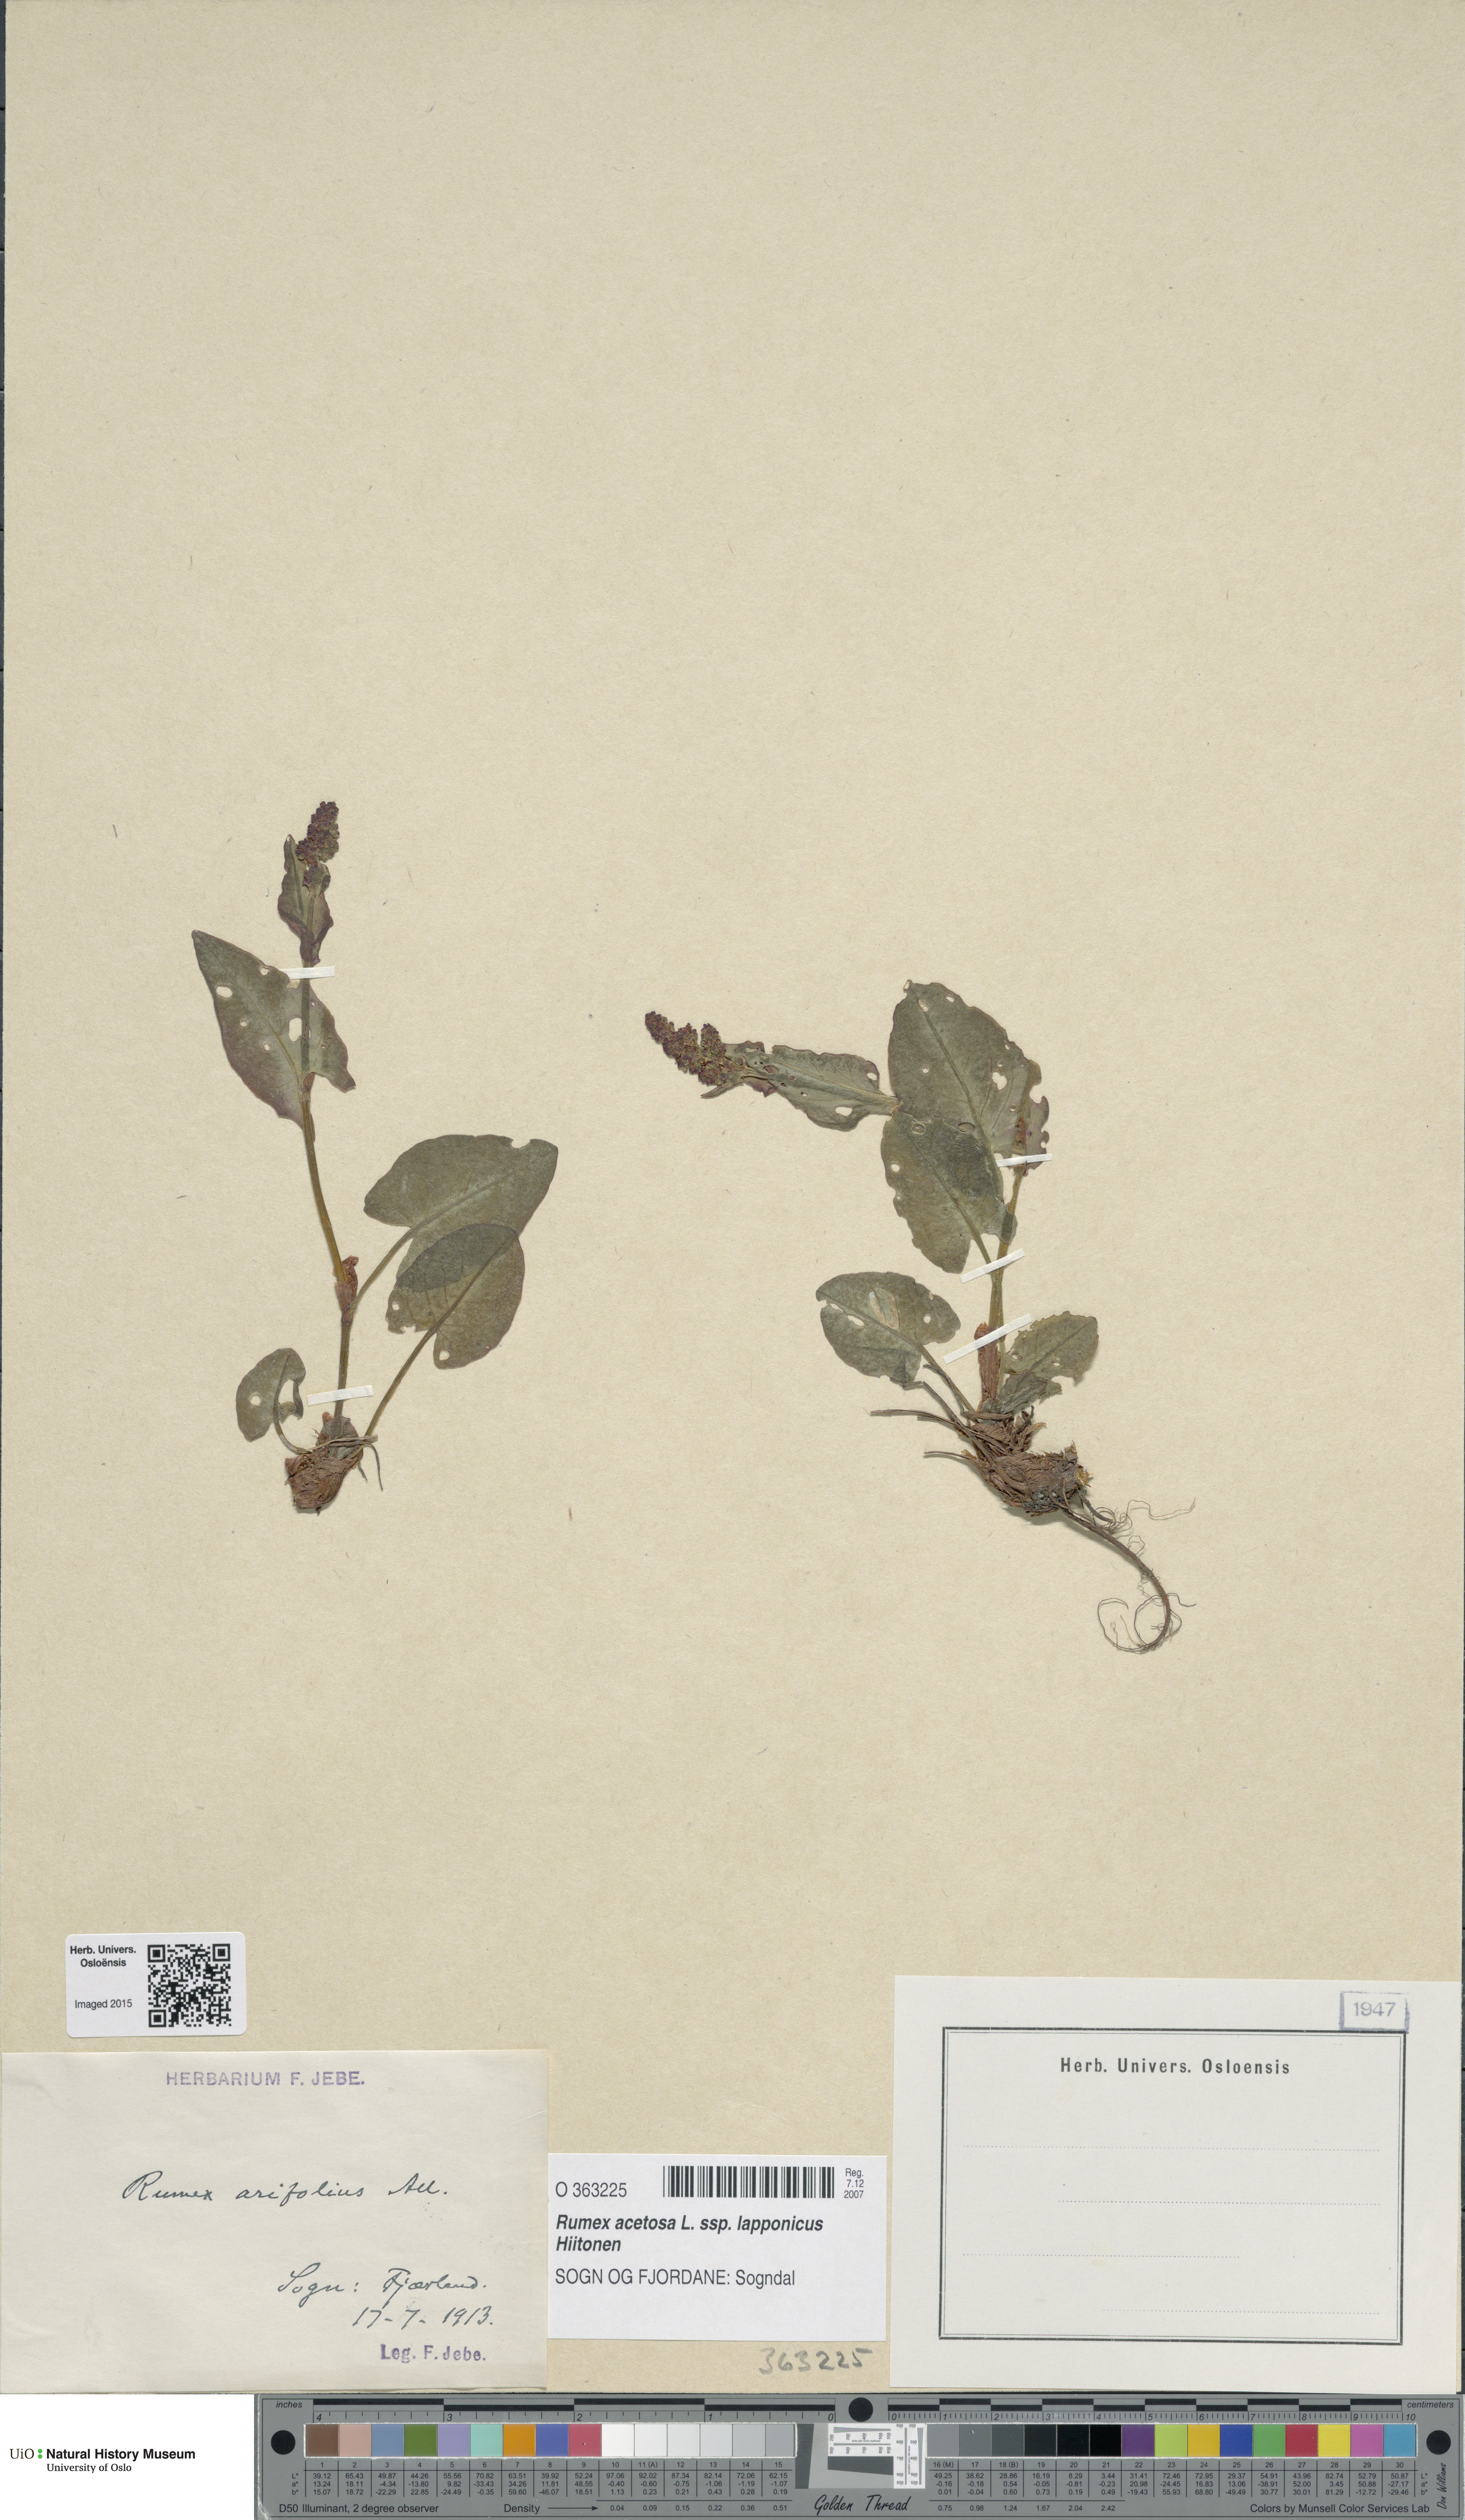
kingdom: Plantae
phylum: Tracheophyta
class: Magnoliopsida
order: Caryophyllales
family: Polygonaceae
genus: Rumex
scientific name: Rumex arifolius
